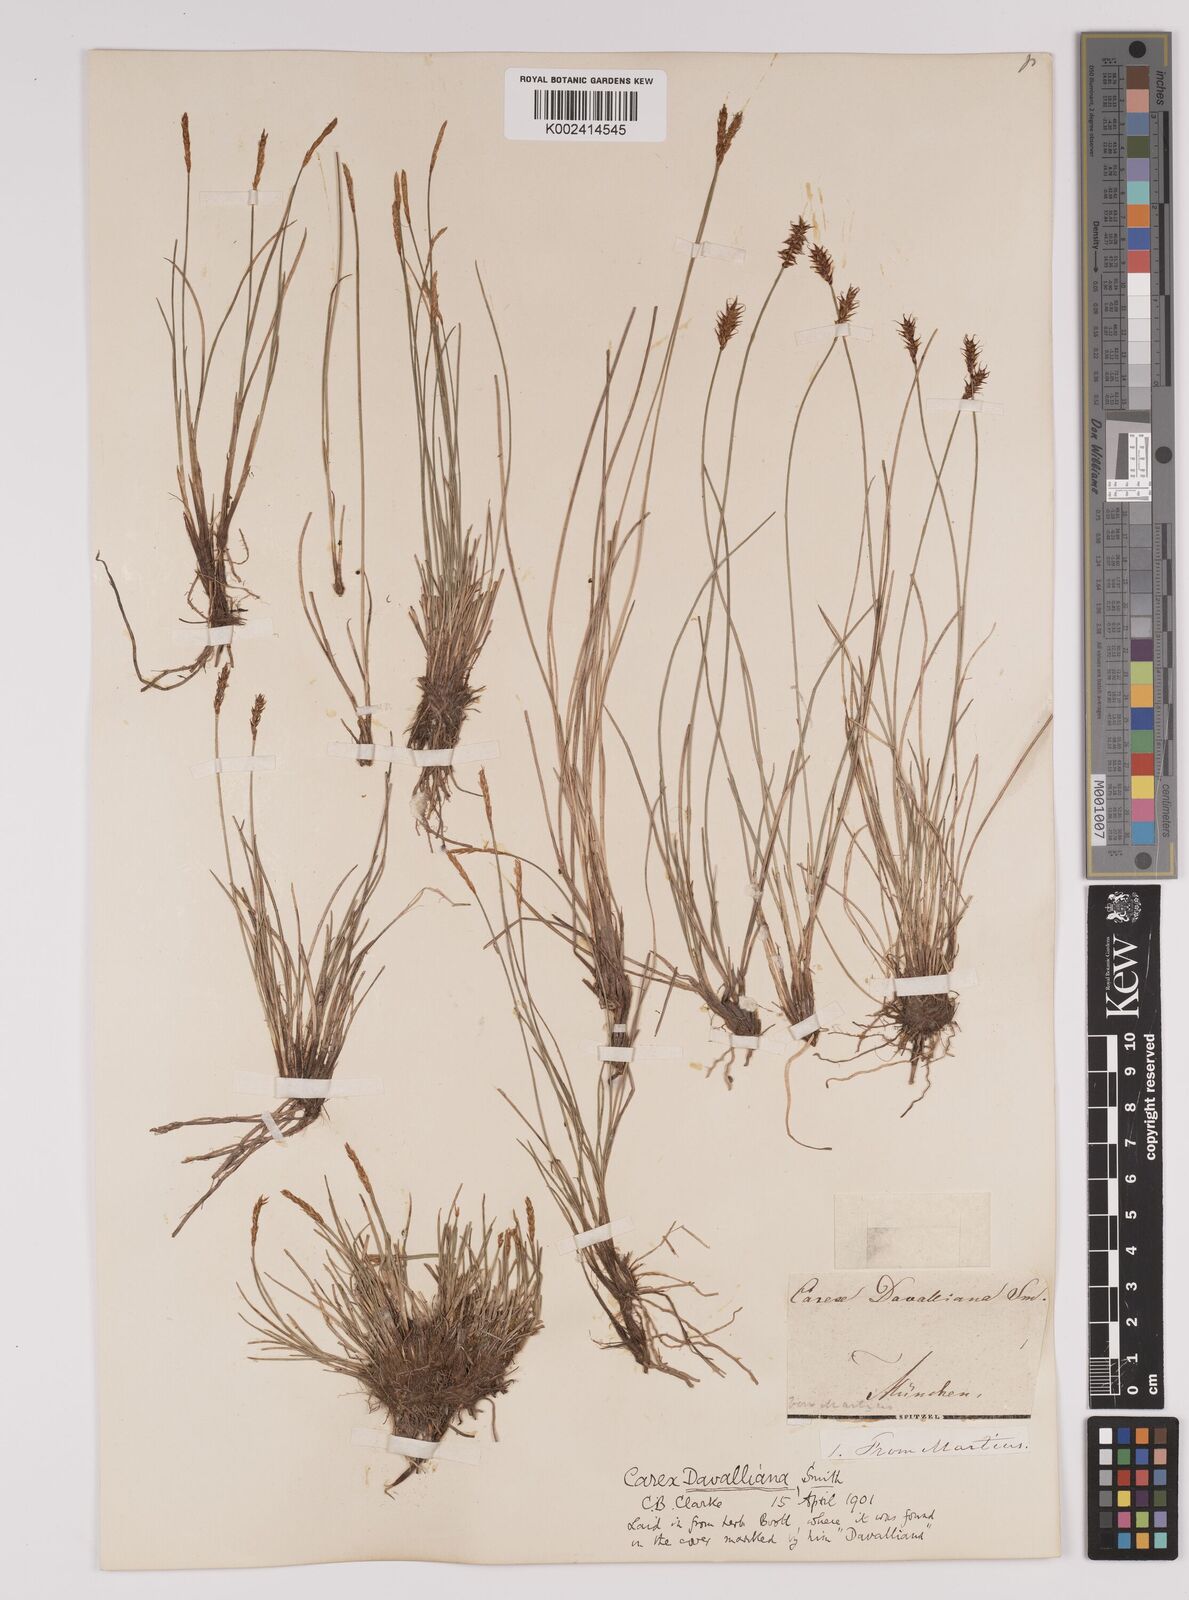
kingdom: Plantae
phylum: Tracheophyta
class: Liliopsida
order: Poales
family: Cyperaceae
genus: Carex
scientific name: Carex davalliana
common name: Davall's sedge
